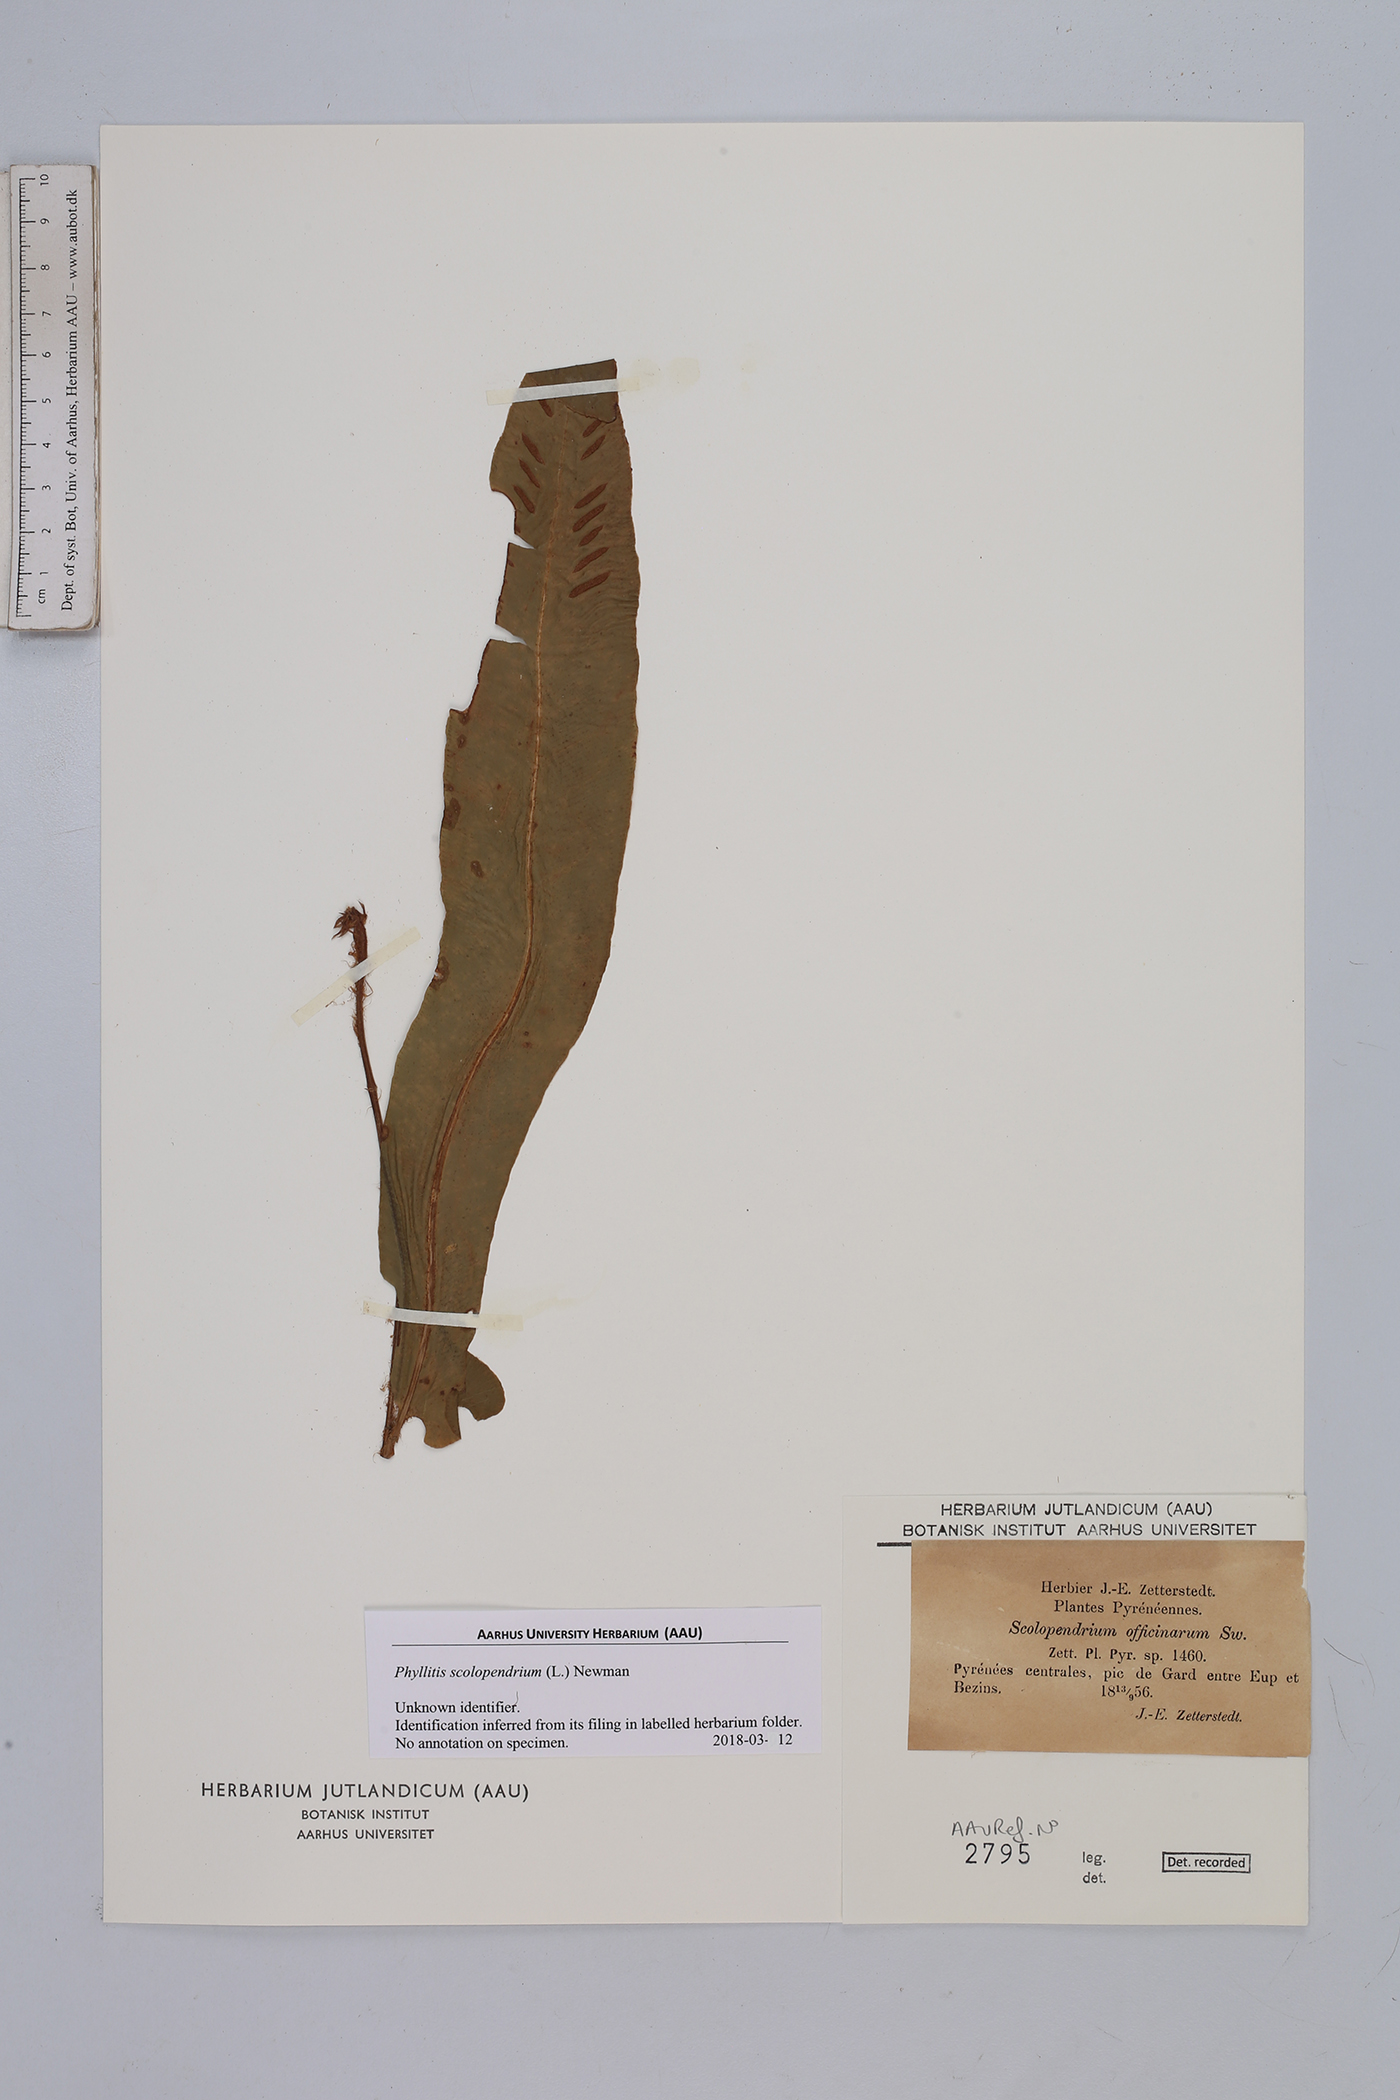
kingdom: Plantae
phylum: Tracheophyta
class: Polypodiopsida
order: Polypodiales
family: Aspleniaceae
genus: Asplenium
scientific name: Asplenium scolopendrium
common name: Hart's-tongue fern
